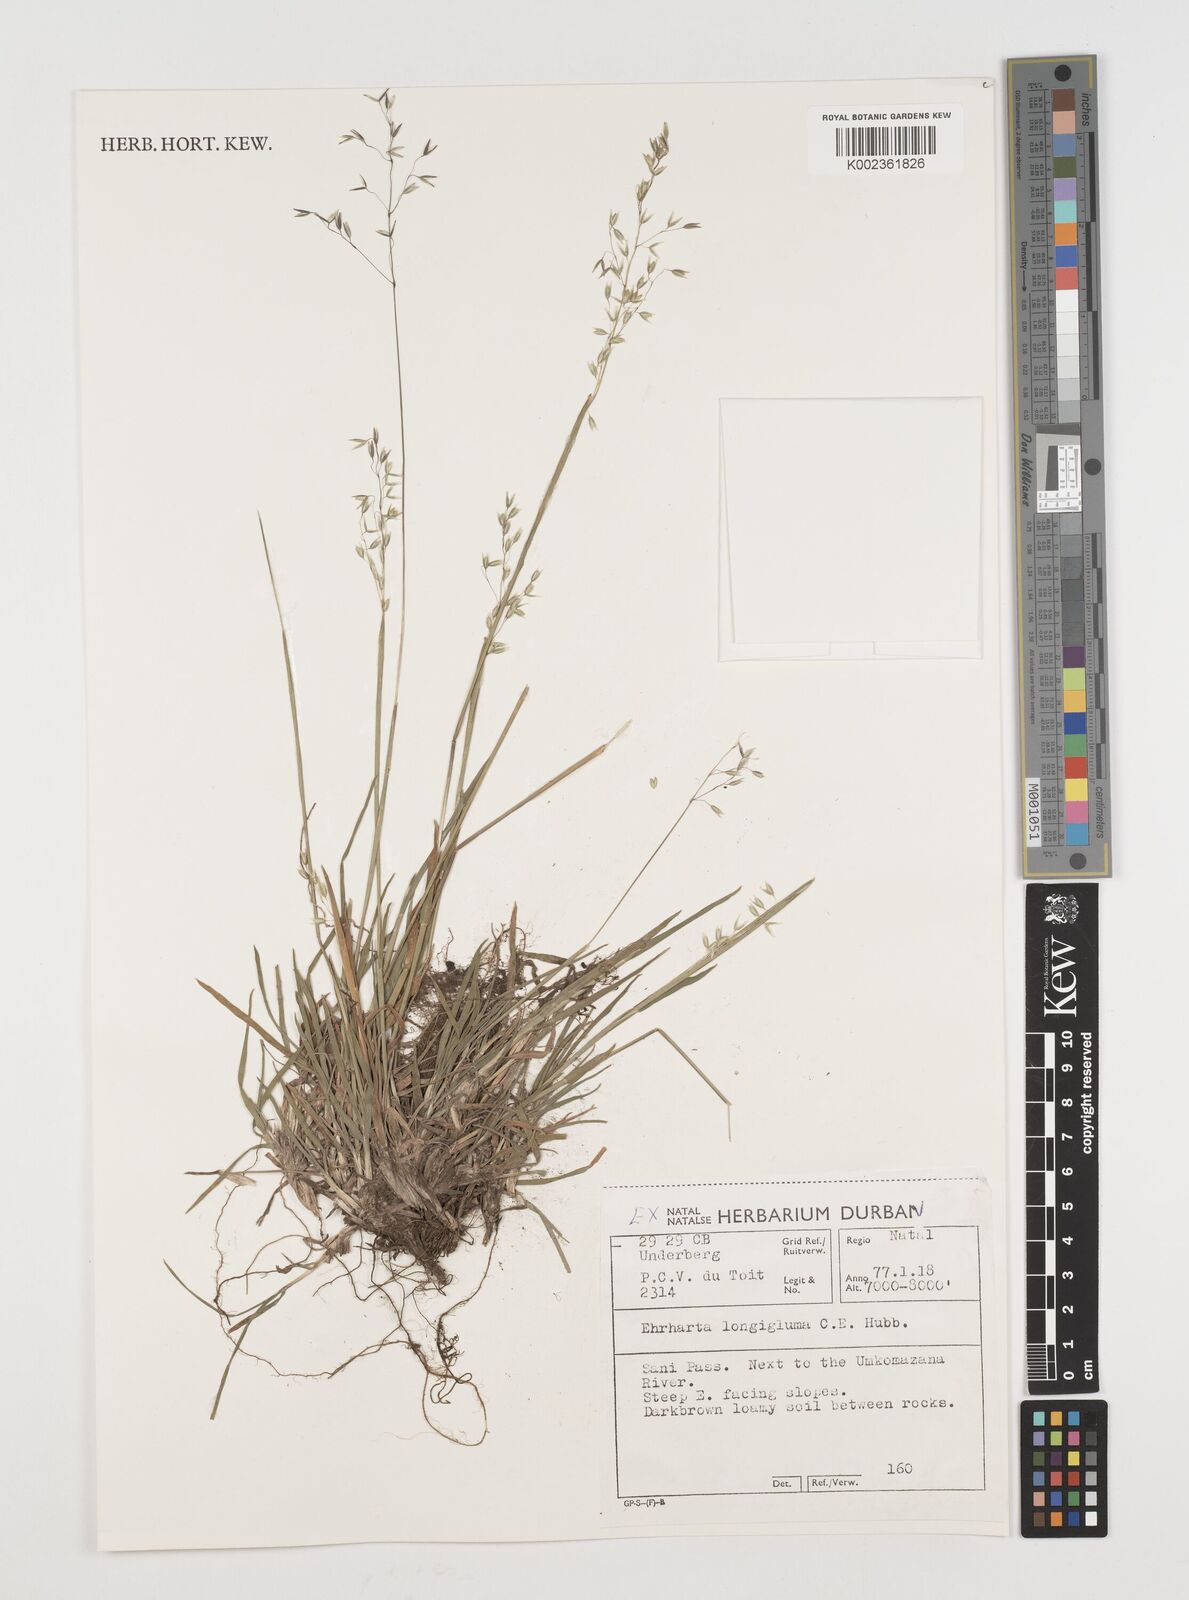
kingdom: Plantae
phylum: Tracheophyta
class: Liliopsida
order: Poales
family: Poaceae
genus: Ehrharta
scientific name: Ehrharta longigluma
